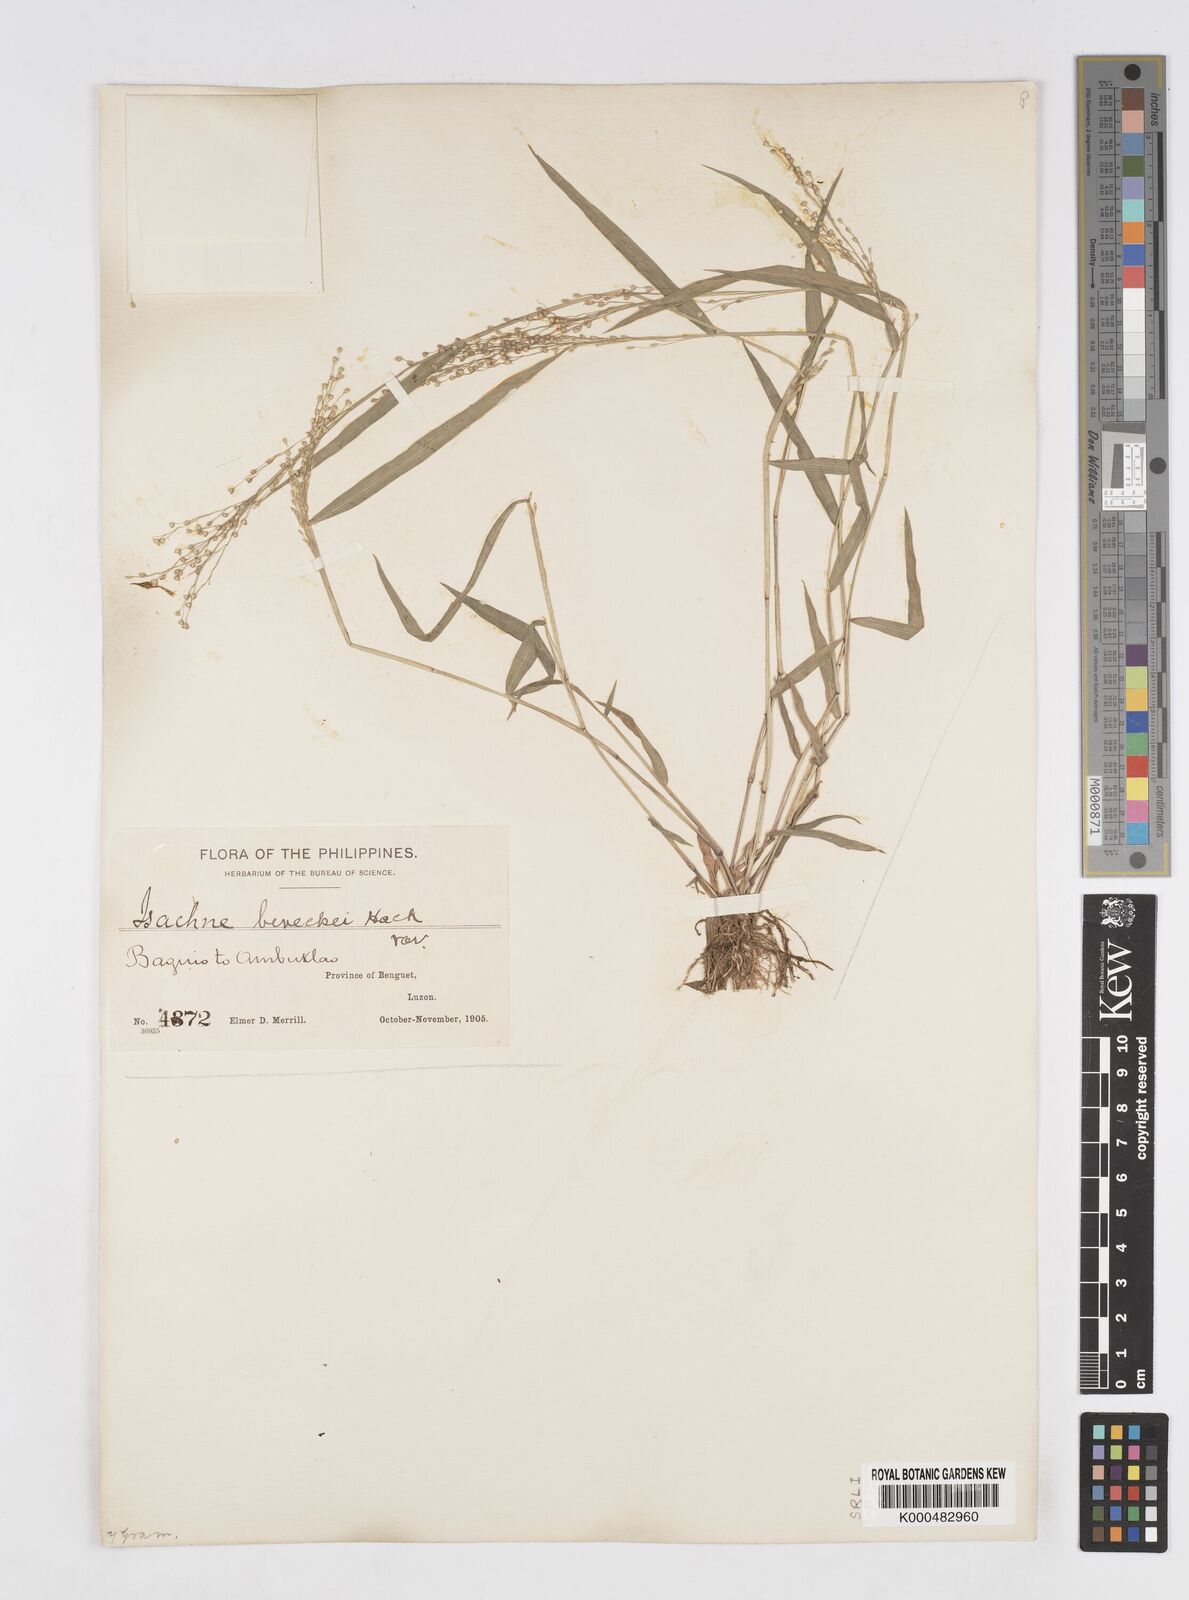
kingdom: Plantae
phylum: Tracheophyta
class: Liliopsida
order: Poales
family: Poaceae
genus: Isachne
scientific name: Isachne clarkei
